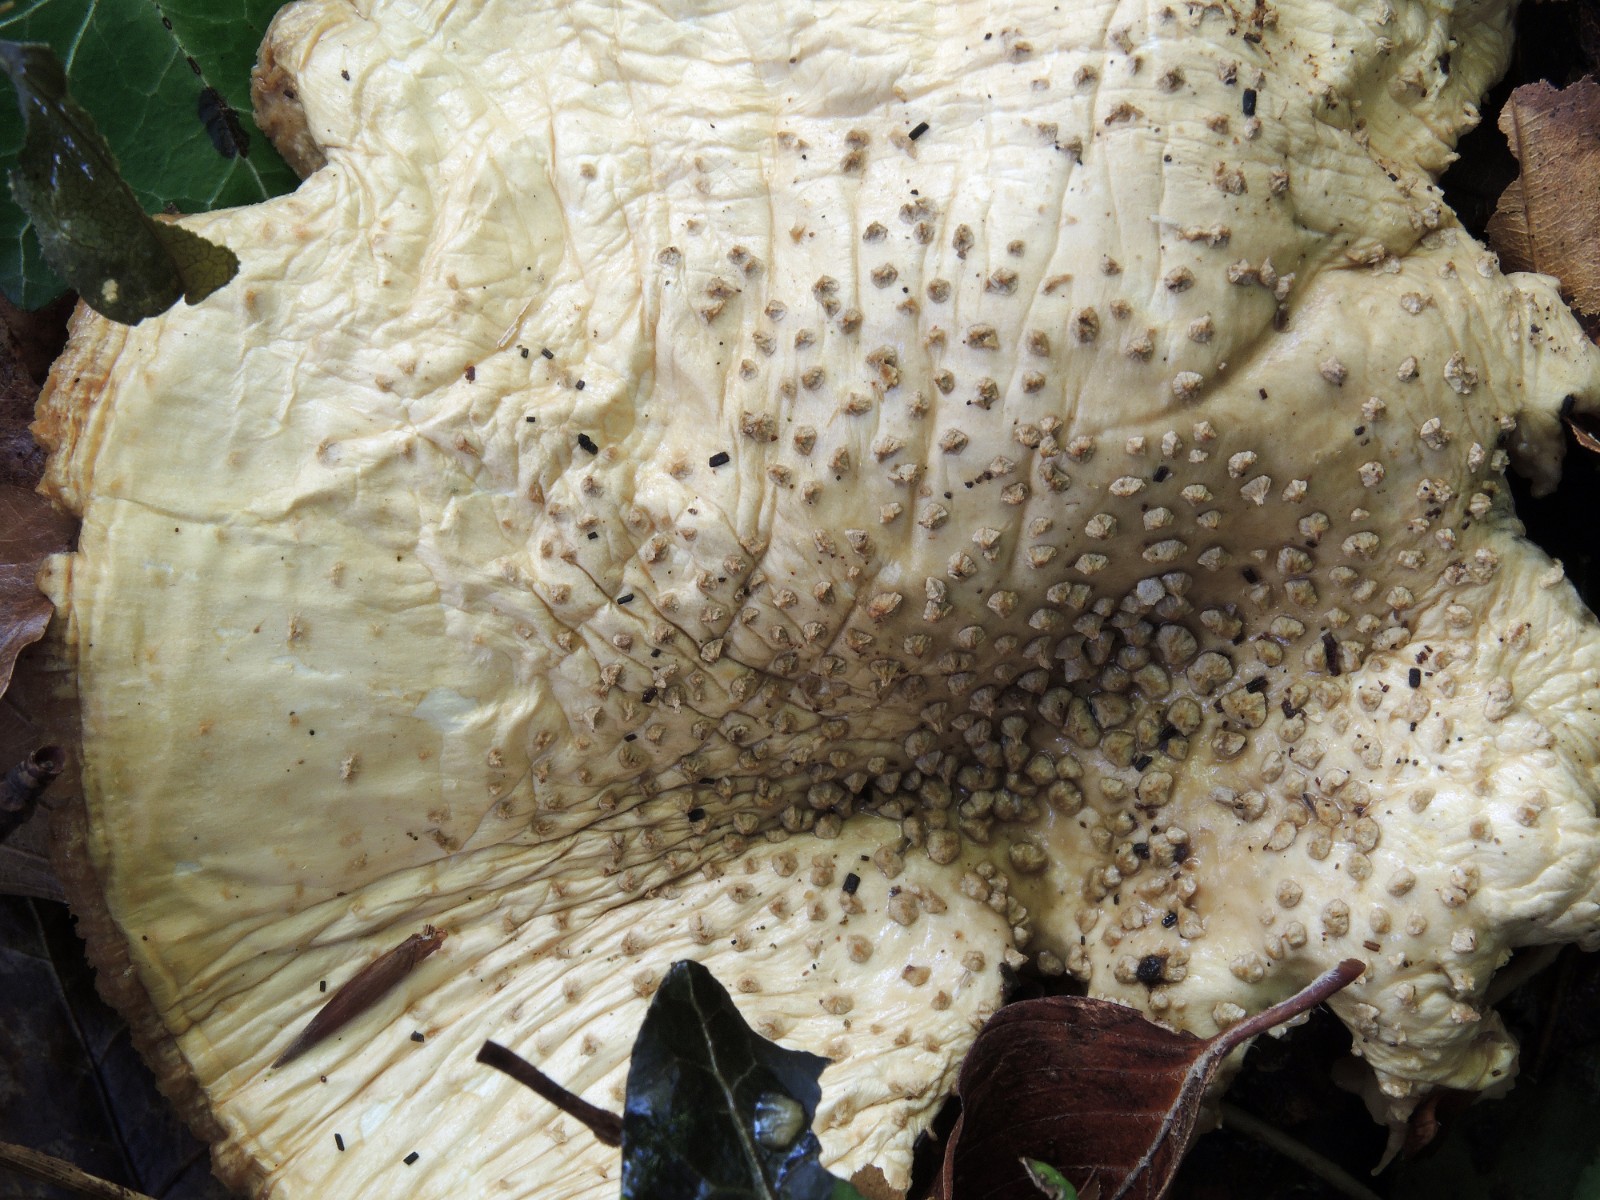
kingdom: Fungi
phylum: Basidiomycota
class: Agaricomycetes
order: Agaricales
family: Amanitaceae
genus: Aspidella
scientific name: Aspidella solitaria
